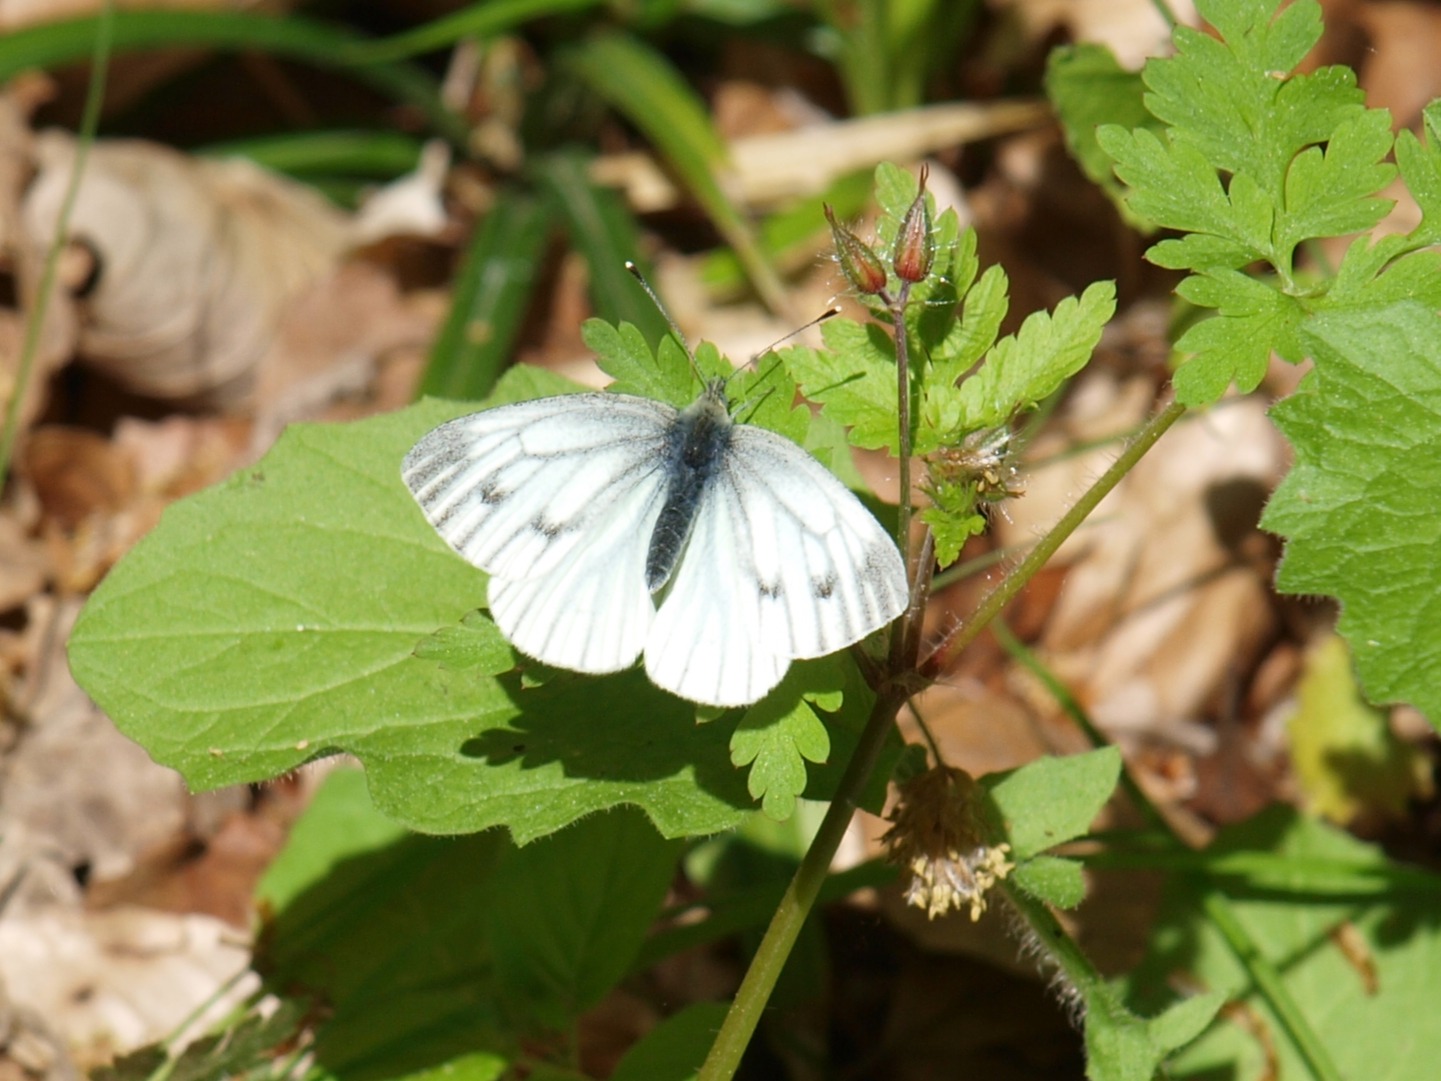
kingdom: Animalia
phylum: Arthropoda
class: Insecta
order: Lepidoptera
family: Pieridae
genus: Pieris
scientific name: Pieris napi
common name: Grønåret kålsommerfugl
